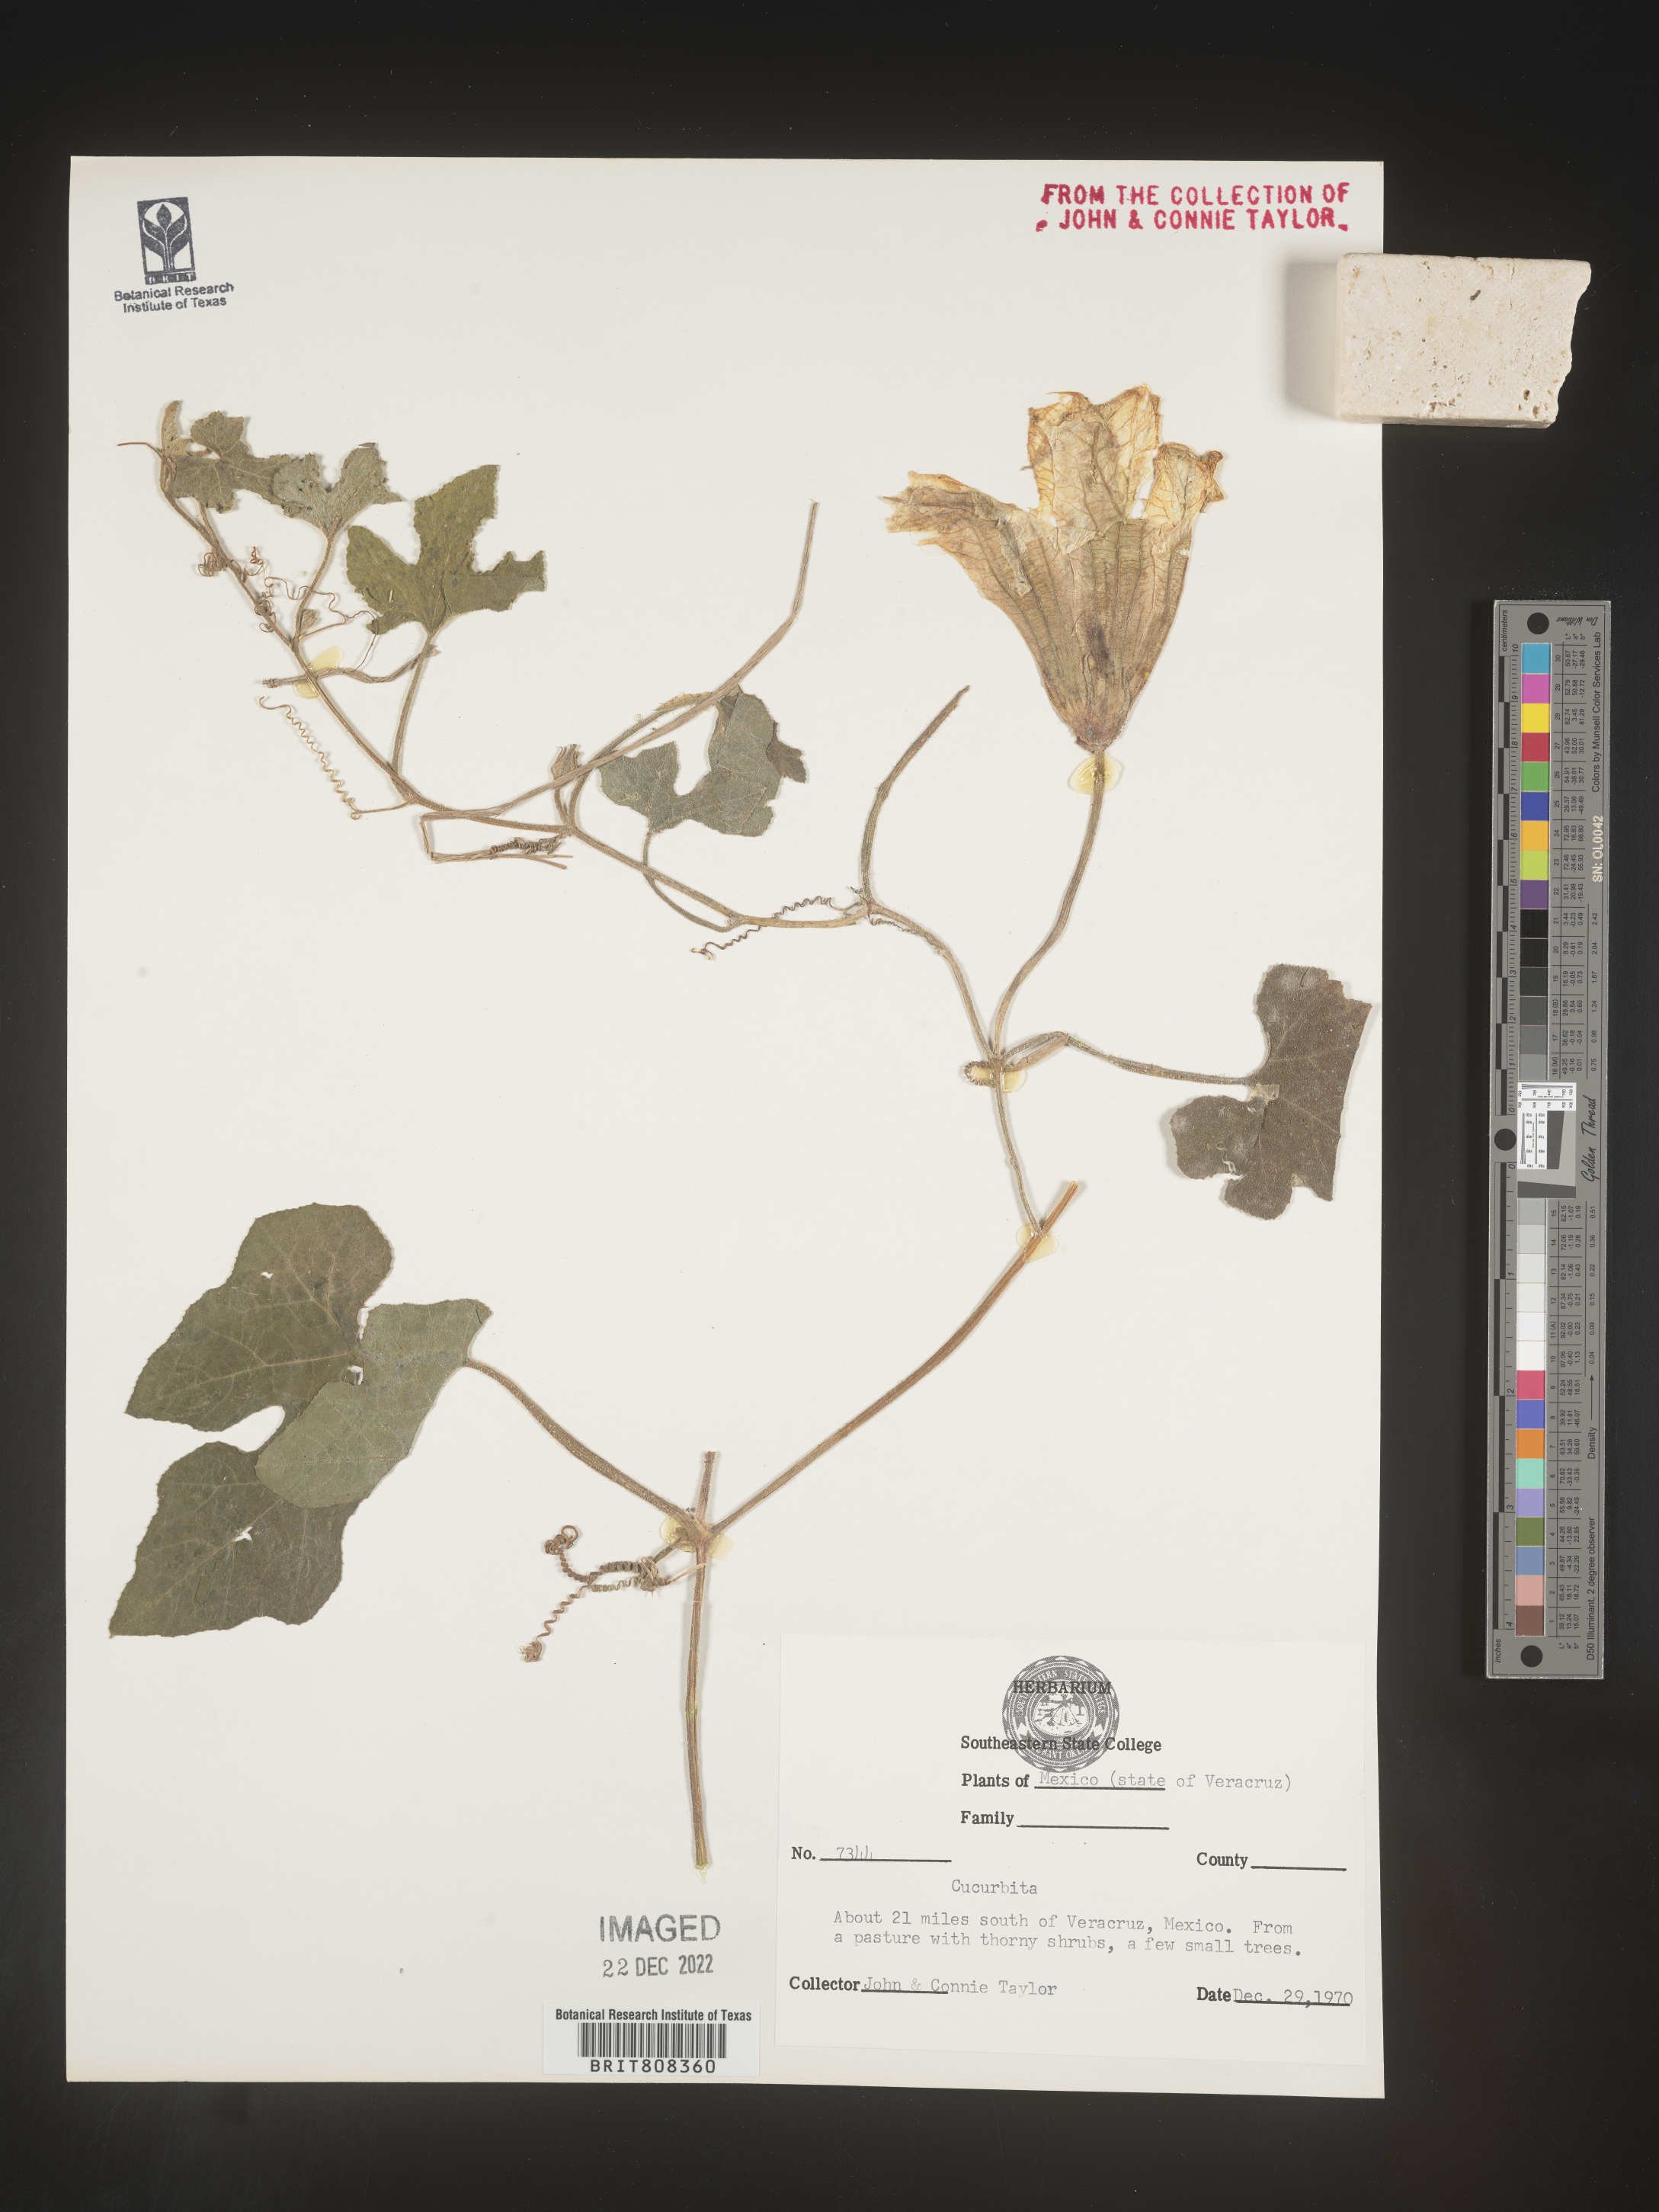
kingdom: Plantae
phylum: Tracheophyta
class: Magnoliopsida
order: Cucurbitales
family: Cucurbitaceae
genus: Cucurbita
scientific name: Cucurbita
